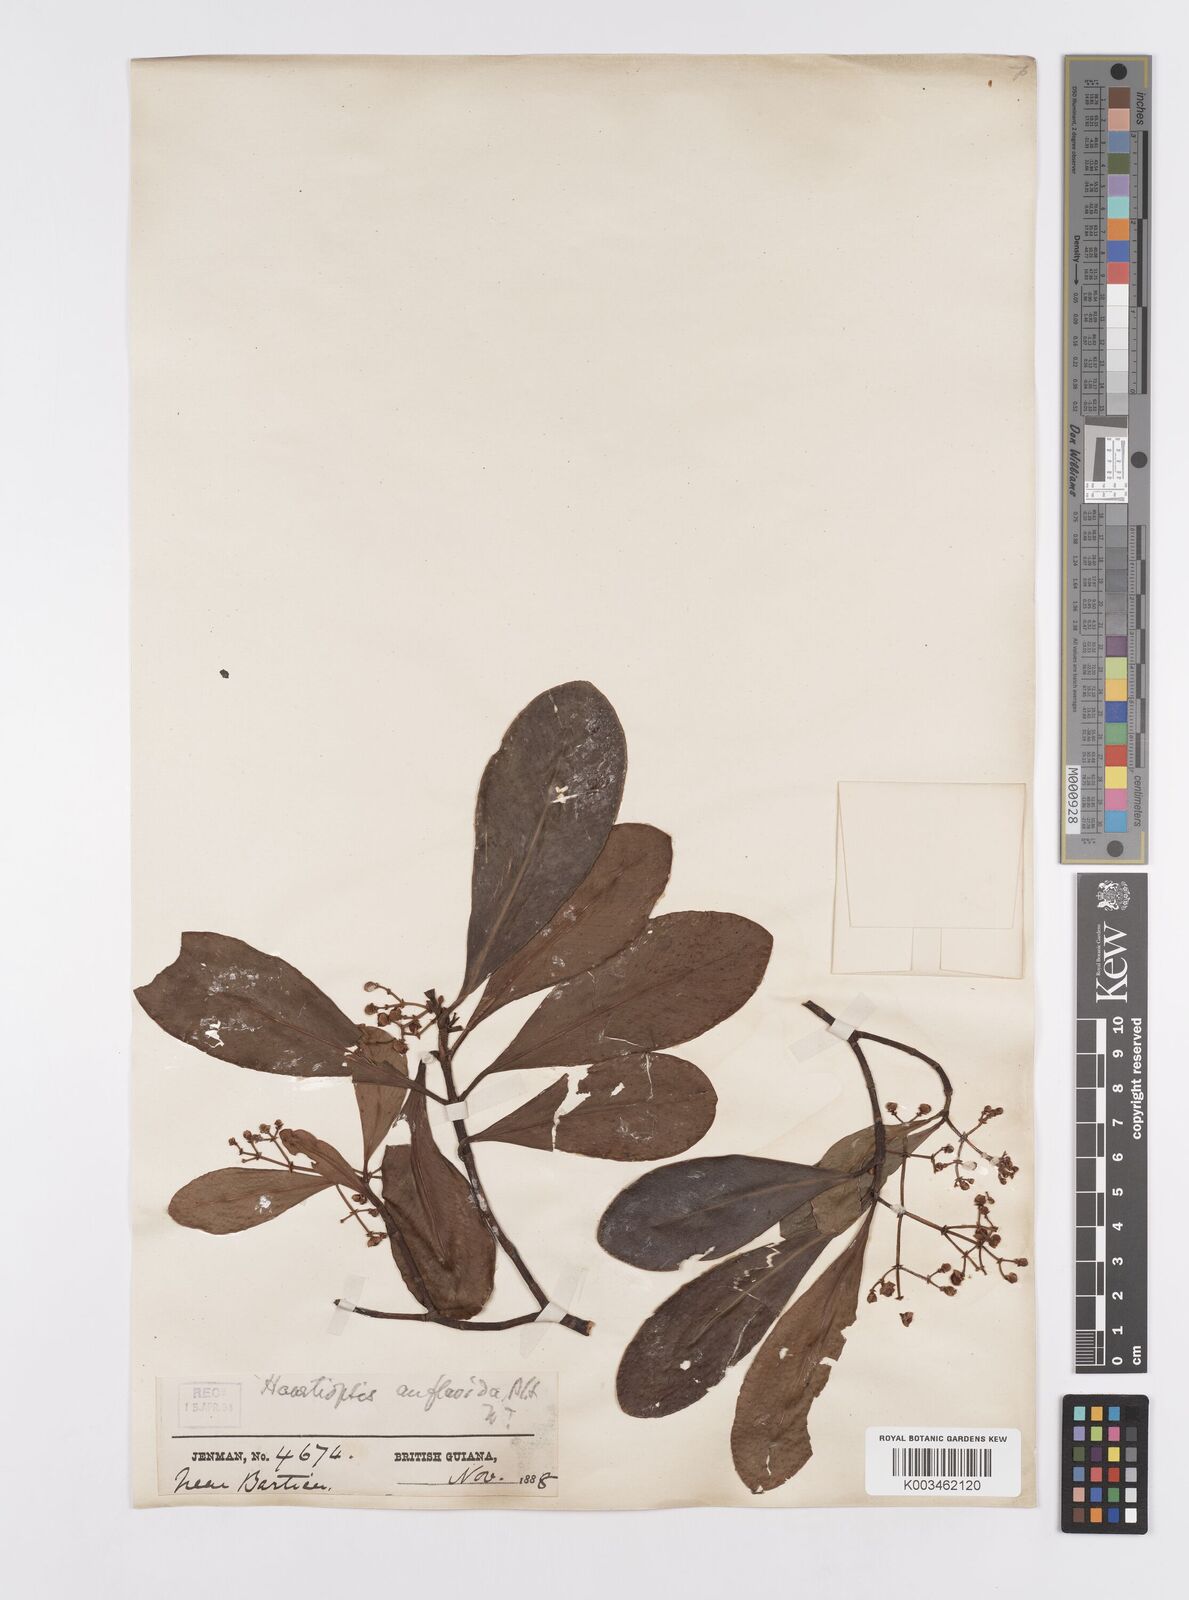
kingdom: Plantae
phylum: Tracheophyta
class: Magnoliopsida
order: Malpighiales
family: Clusiaceae
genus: Clusia
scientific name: Clusia flavida
